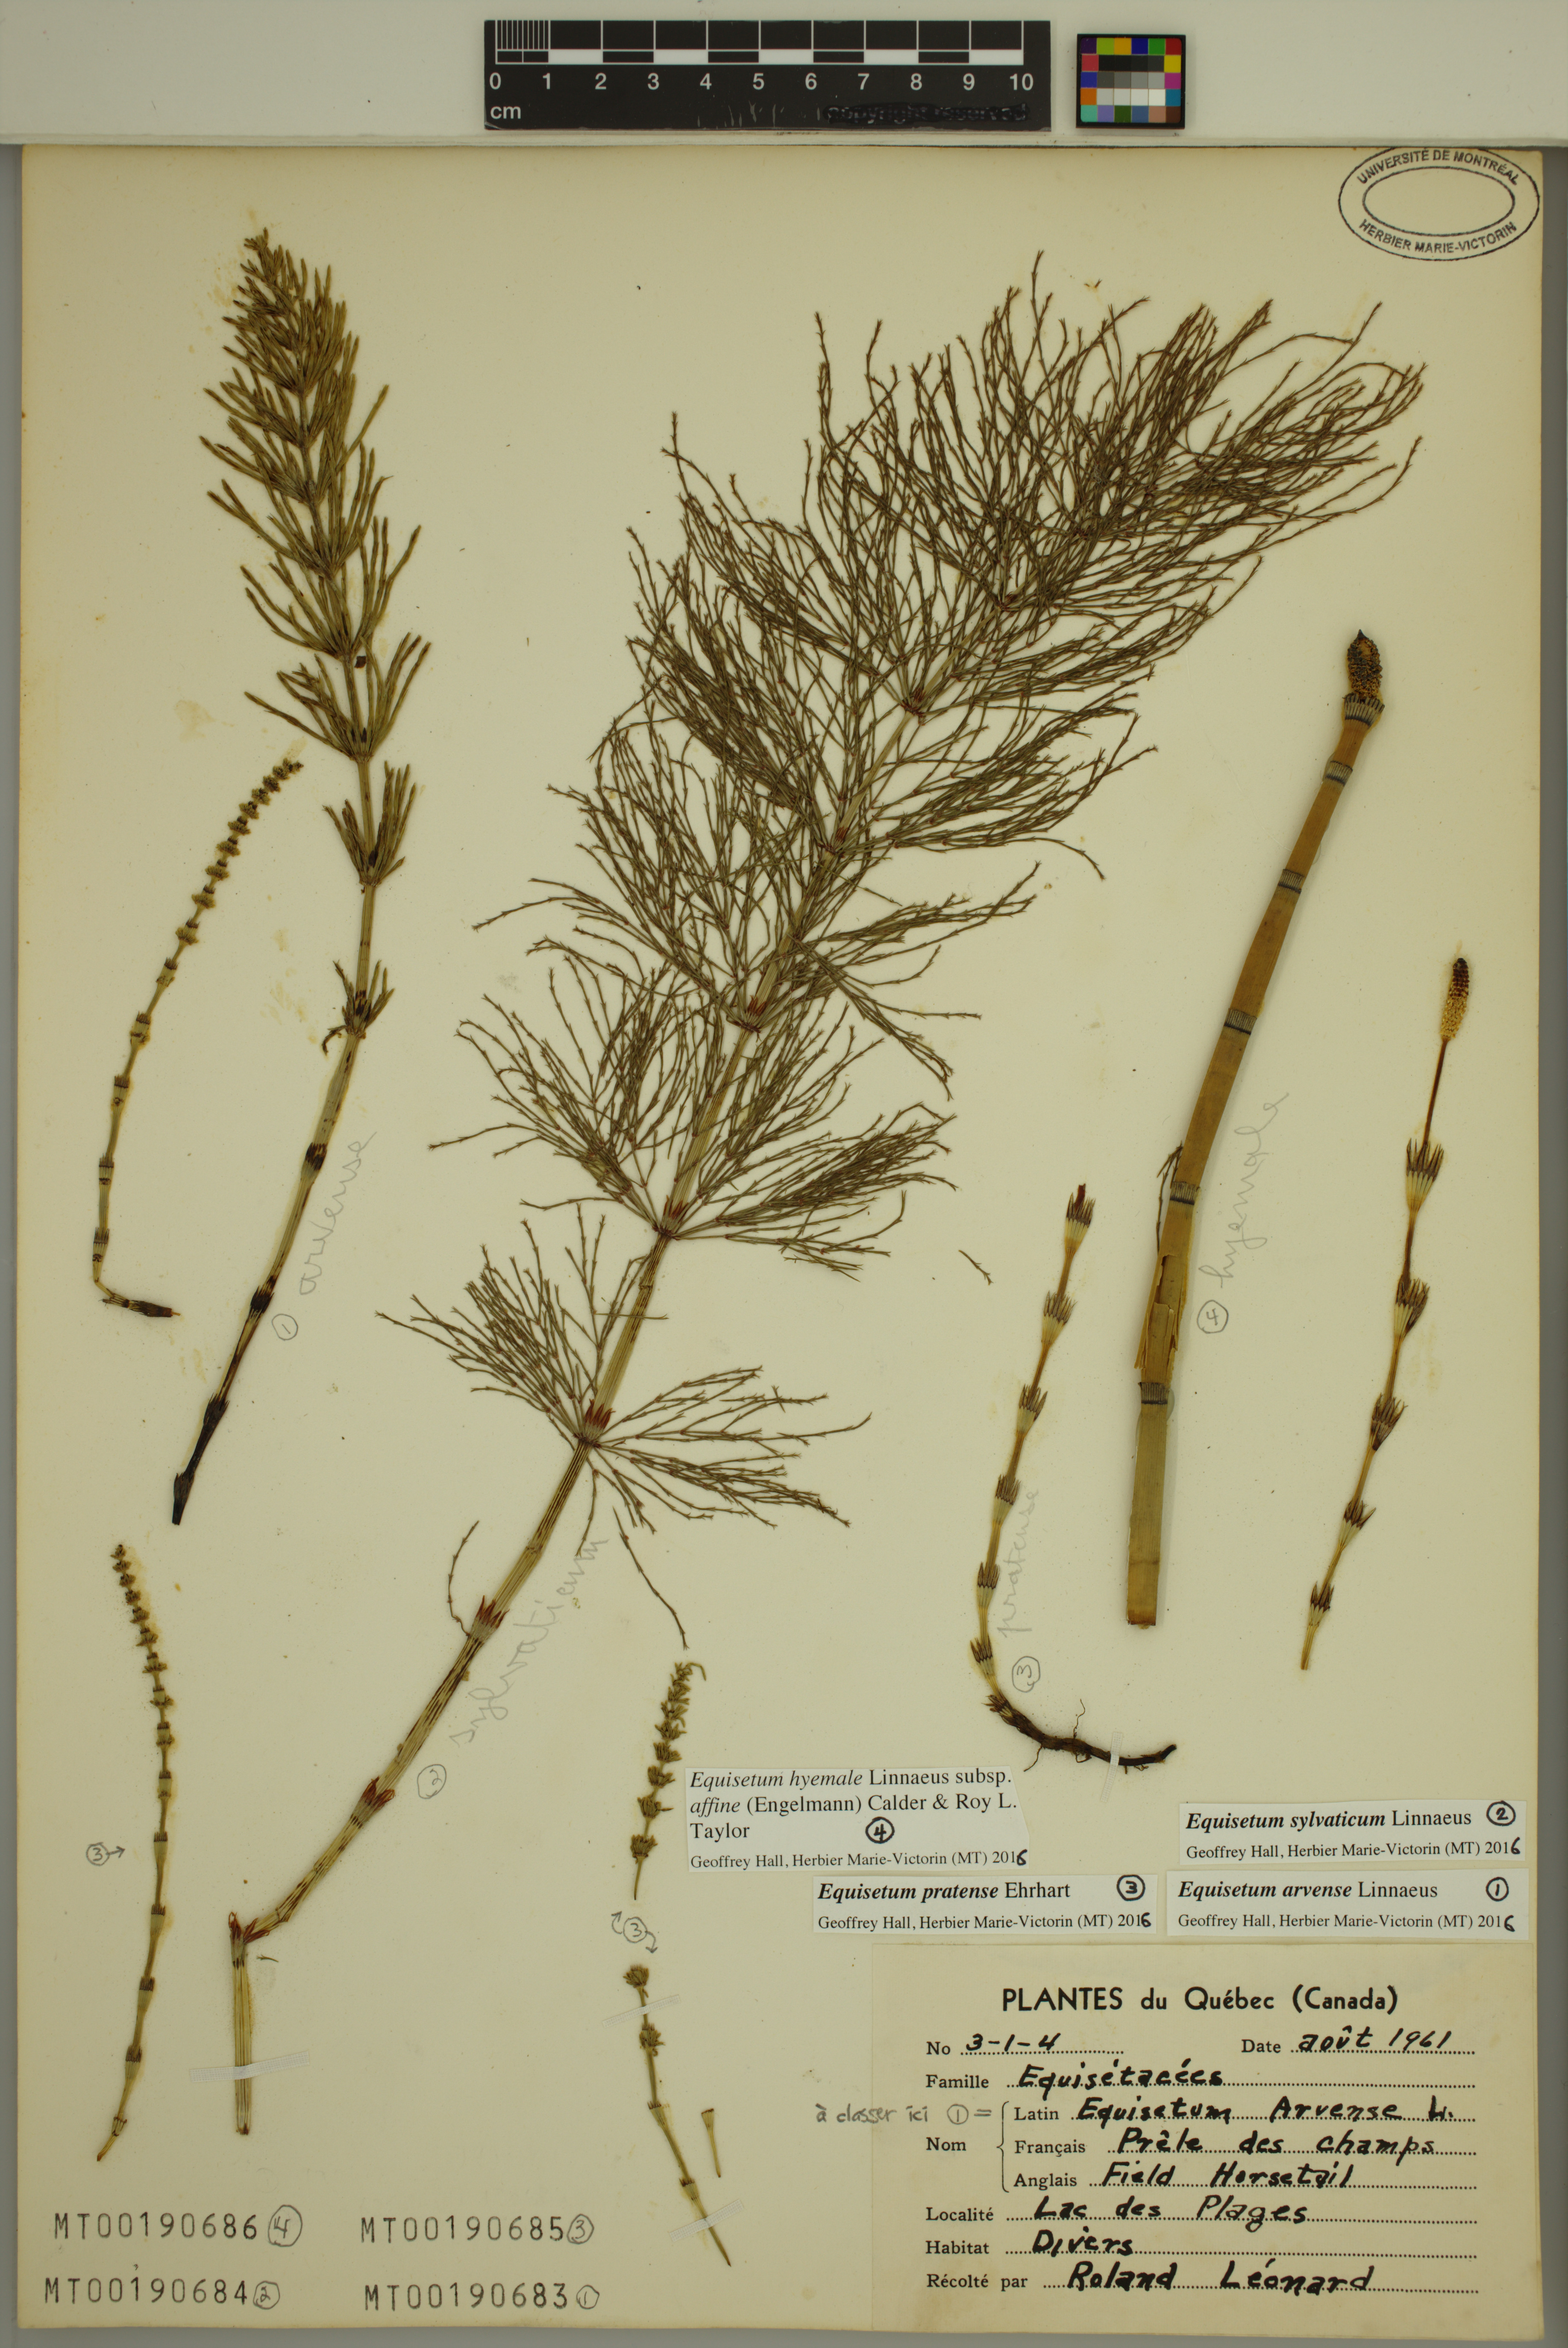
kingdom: Plantae
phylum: Tracheophyta
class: Polypodiopsida
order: Equisetales
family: Equisetaceae
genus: Equisetum
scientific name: Equisetum sylvaticum
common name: Wood horsetail
